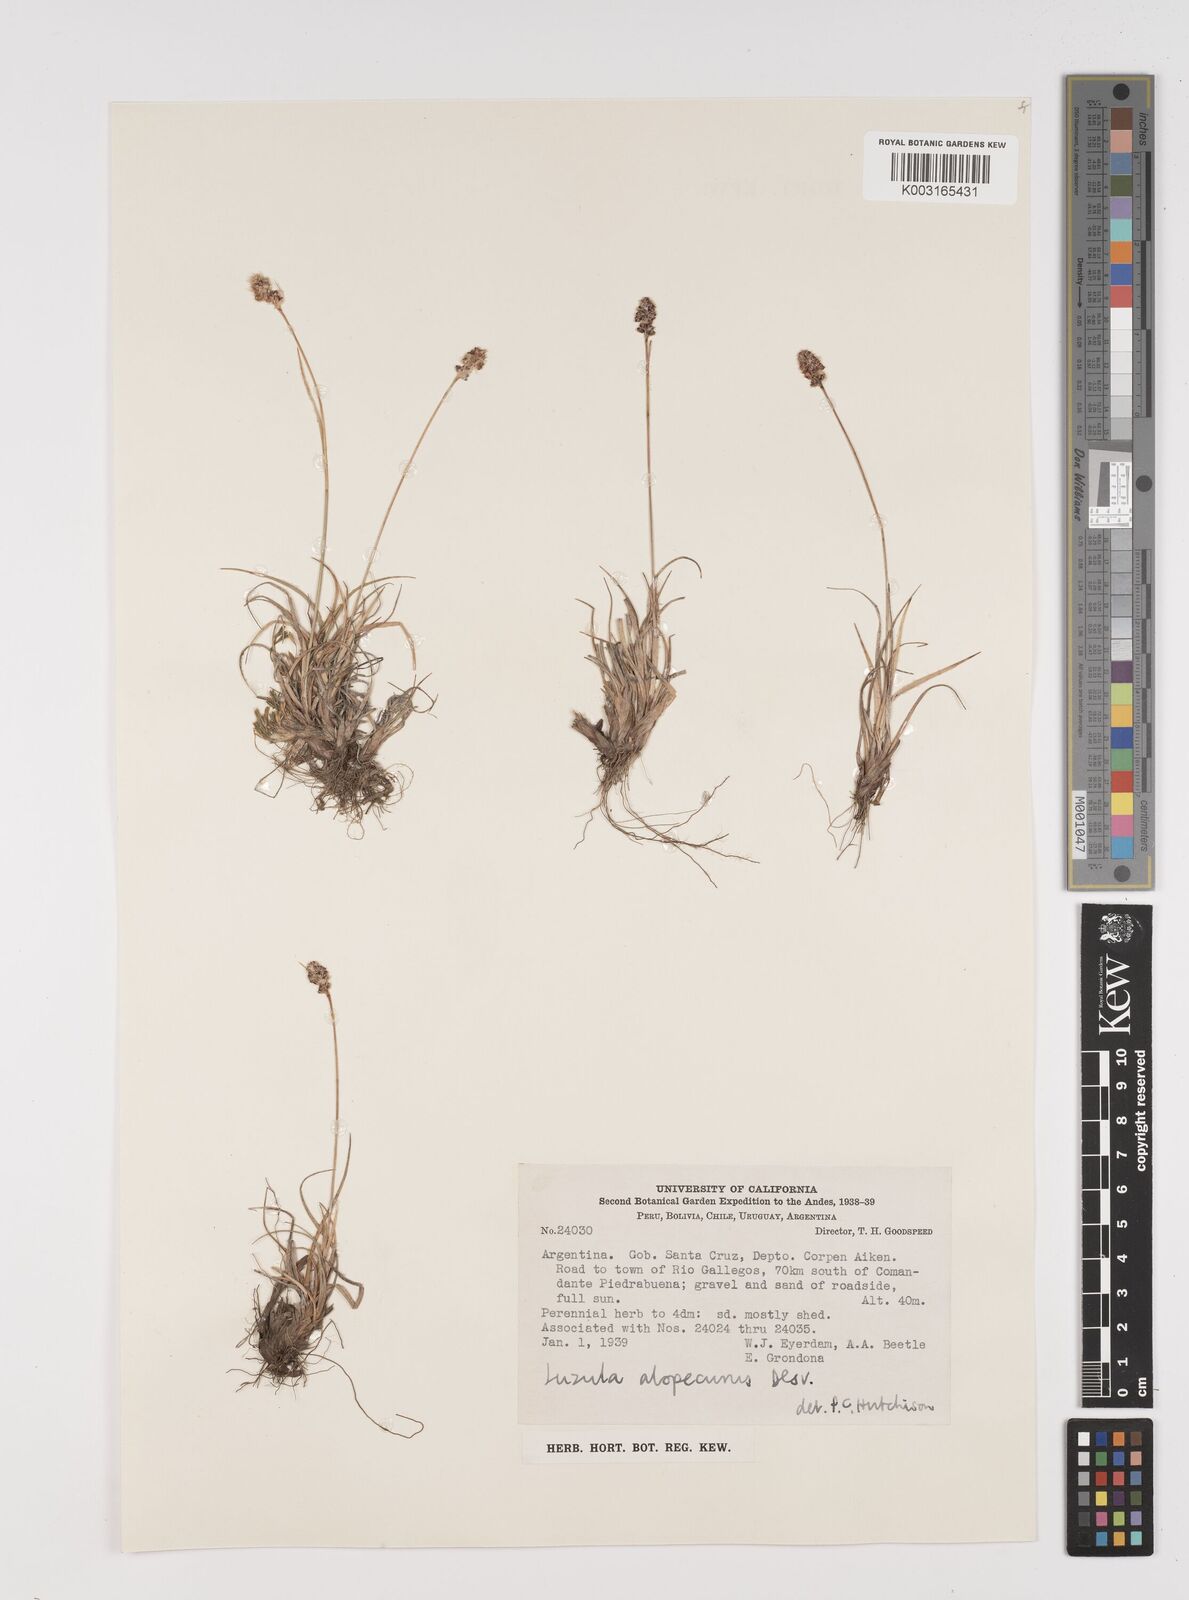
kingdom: Plantae
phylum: Tracheophyta
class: Liliopsida
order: Poales
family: Juncaceae
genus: Luzula
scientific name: Luzula alopecurus
